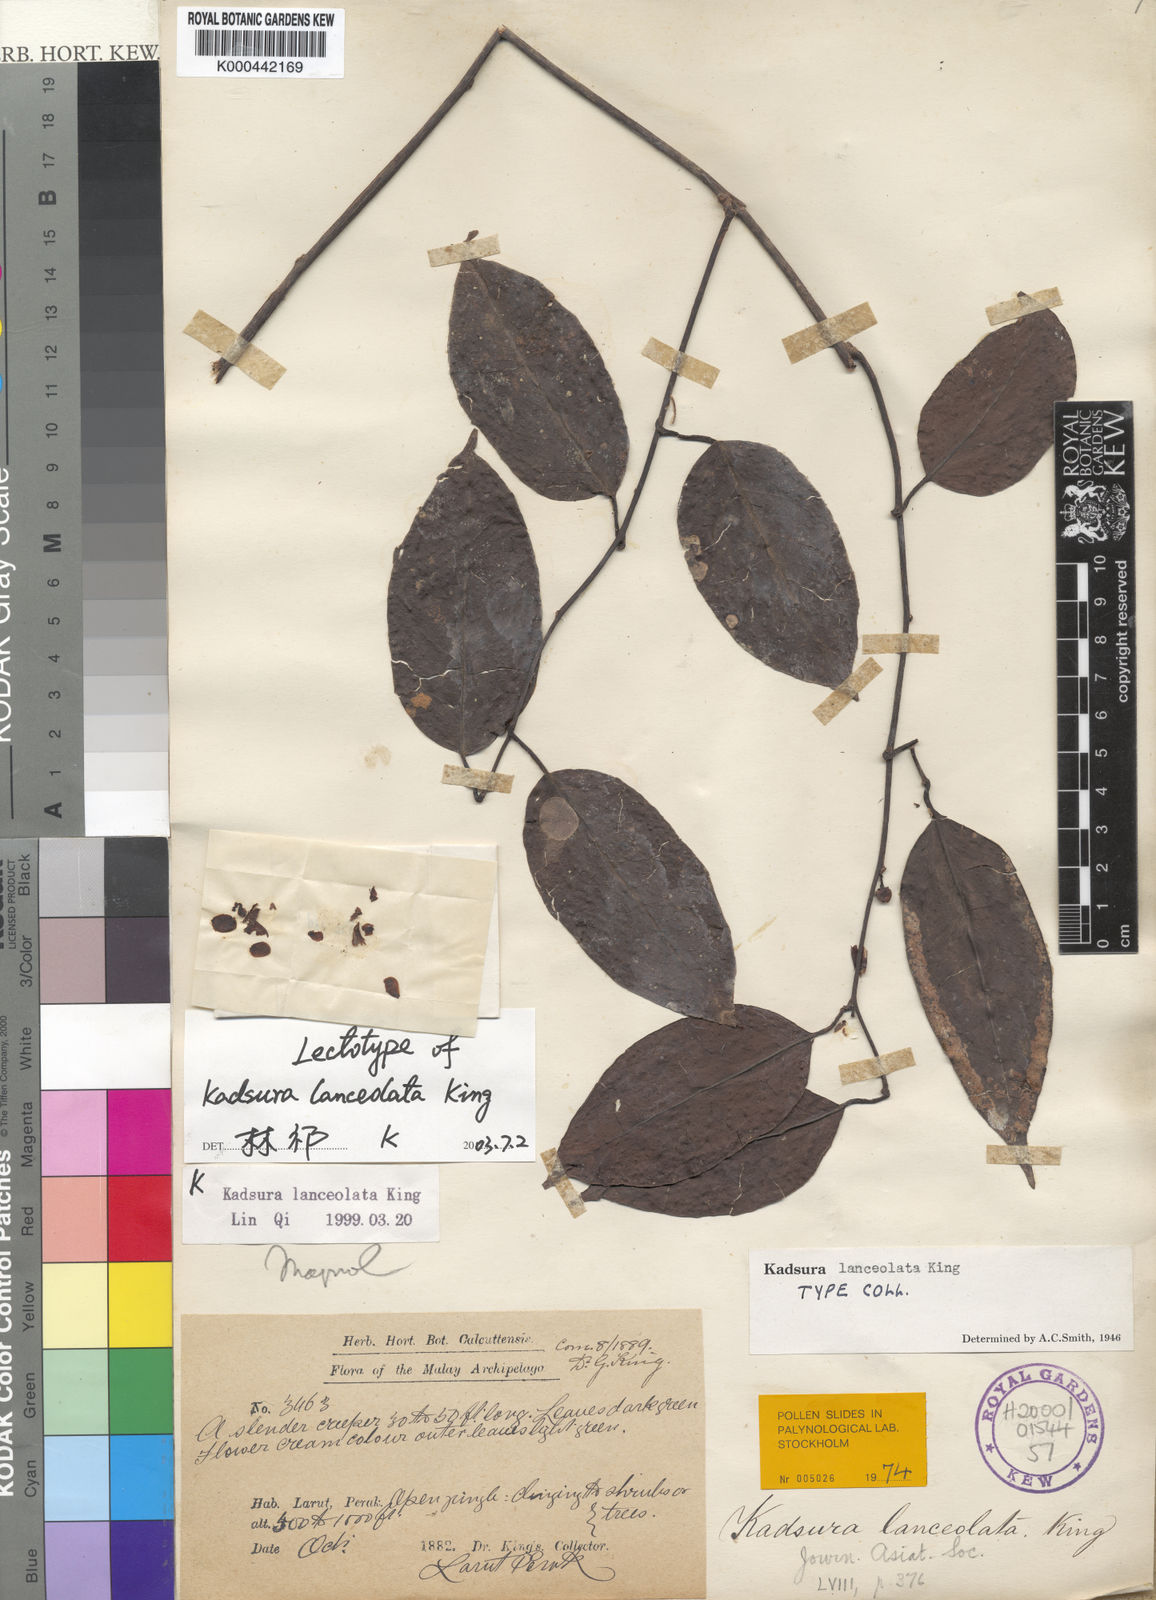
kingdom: Plantae
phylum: Tracheophyta
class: Magnoliopsida
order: Austrobaileyales
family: Schisandraceae
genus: Kadsura
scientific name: Kadsura lanceolata
